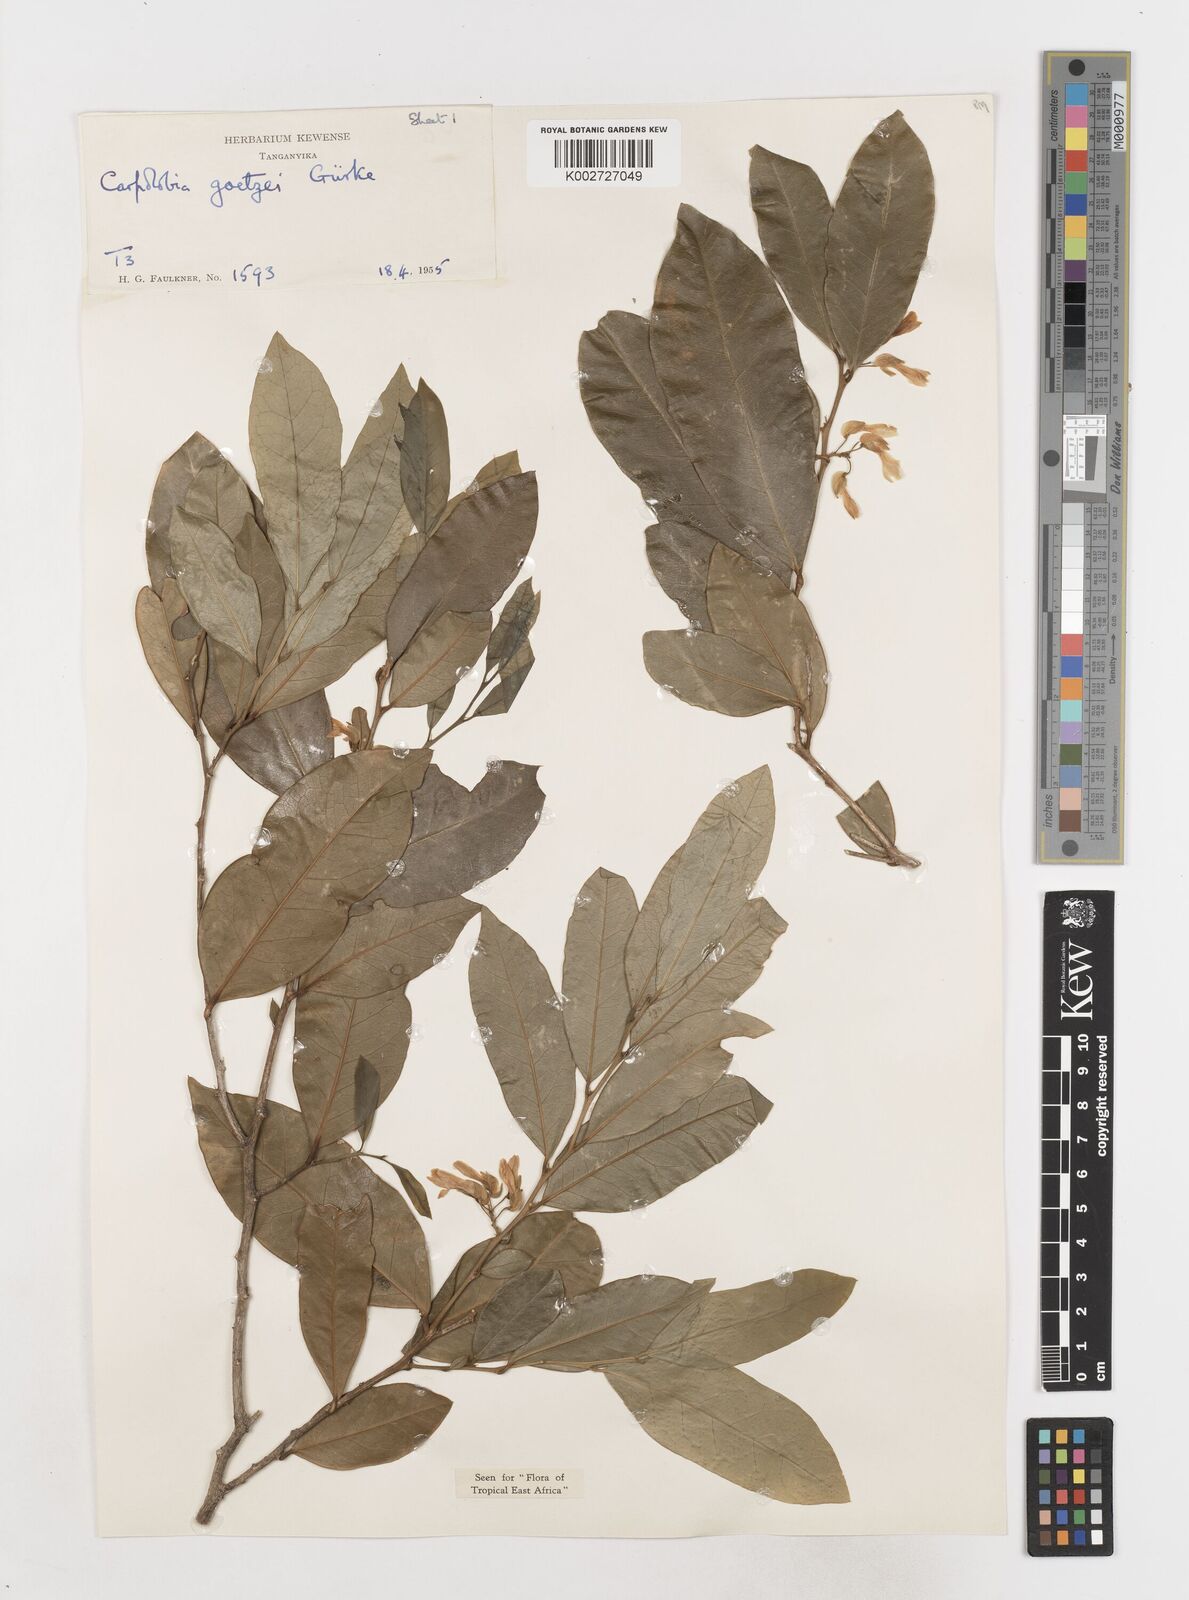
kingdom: Plantae
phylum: Tracheophyta
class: Magnoliopsida
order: Fabales
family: Polygalaceae
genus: Carpolobia
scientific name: Carpolobia goetzei
